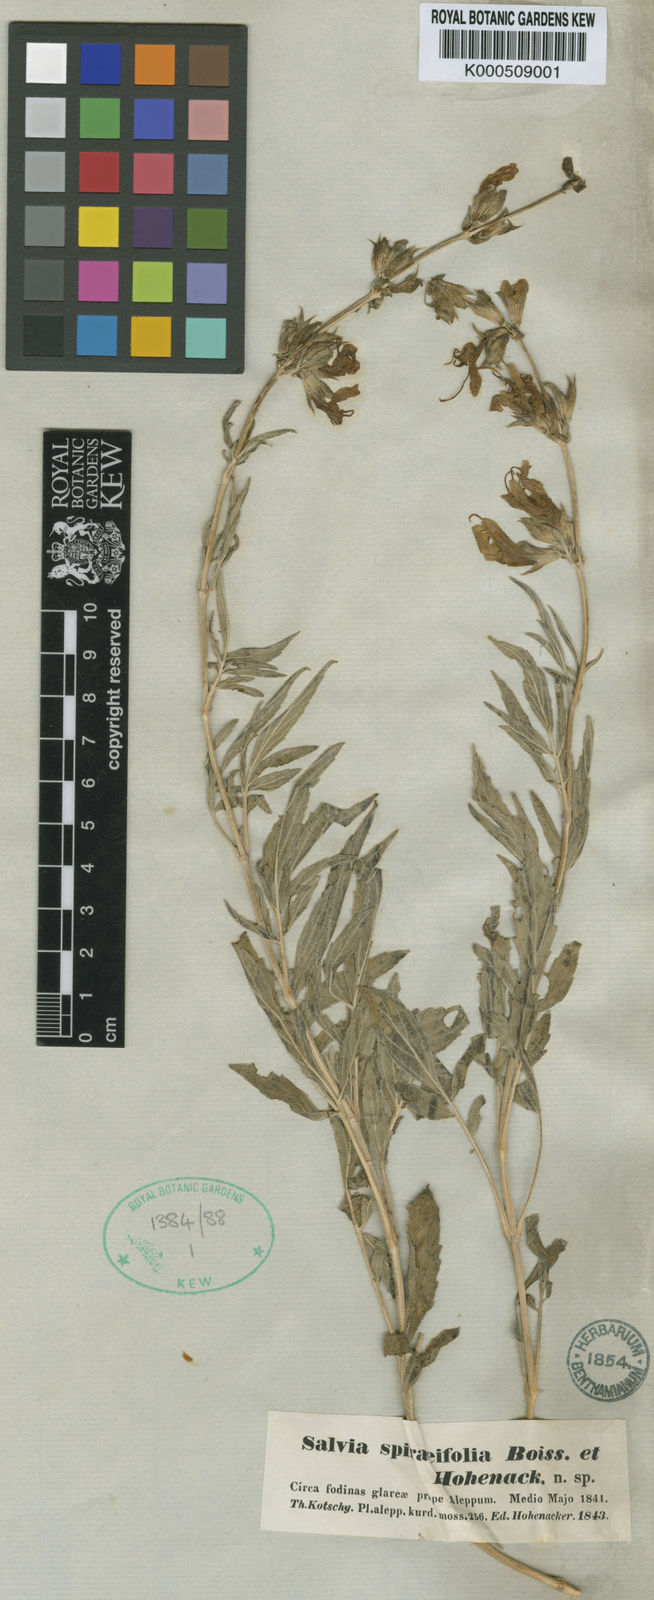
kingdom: Plantae
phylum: Tracheophyta
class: Magnoliopsida
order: Lamiales
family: Lamiaceae
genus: Salvia
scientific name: Salvia spiraeifolia
